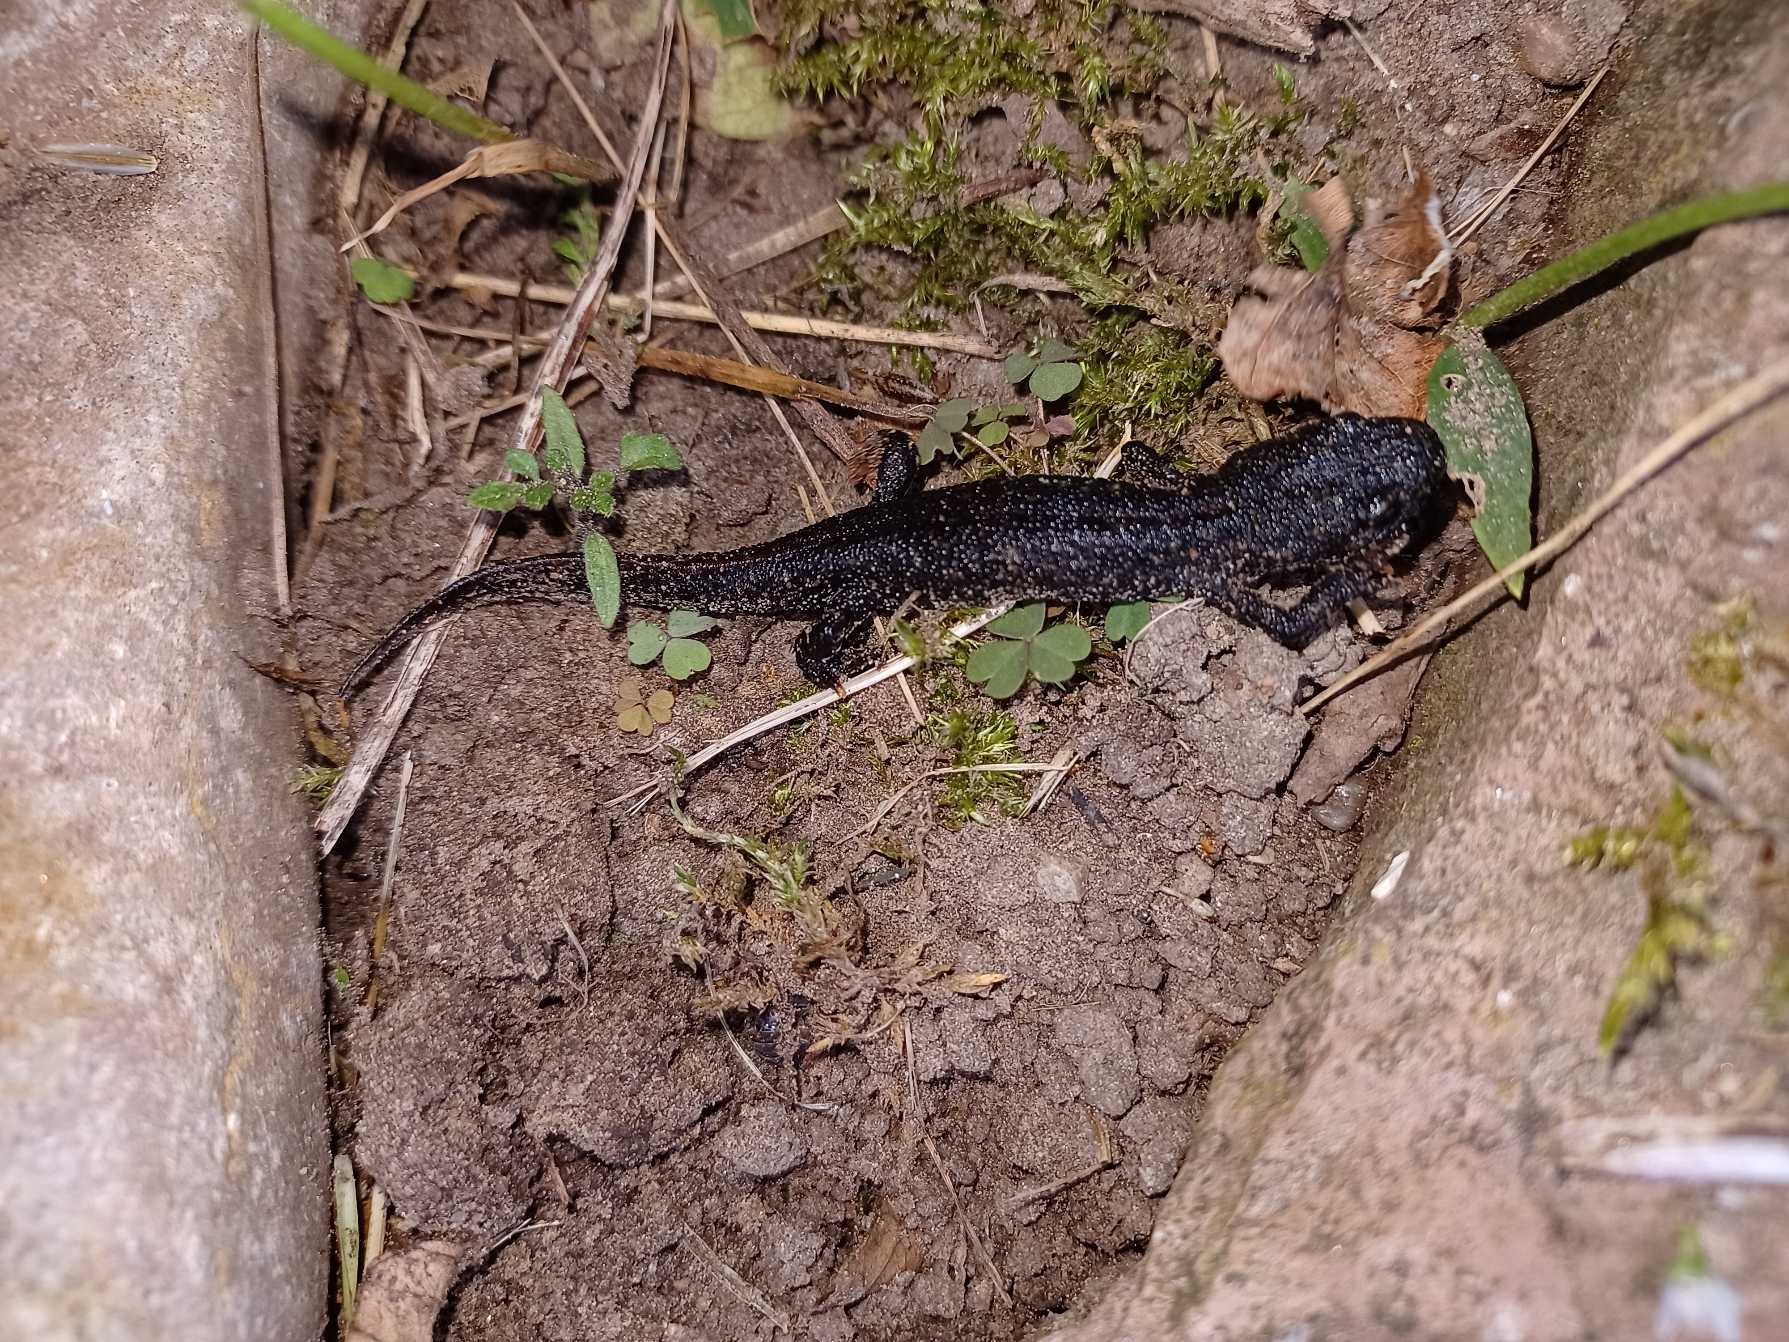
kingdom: Animalia
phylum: Chordata
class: Amphibia
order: Caudata
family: Salamandridae
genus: Triturus
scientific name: Triturus cristatus
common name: Stor vandsalamander
